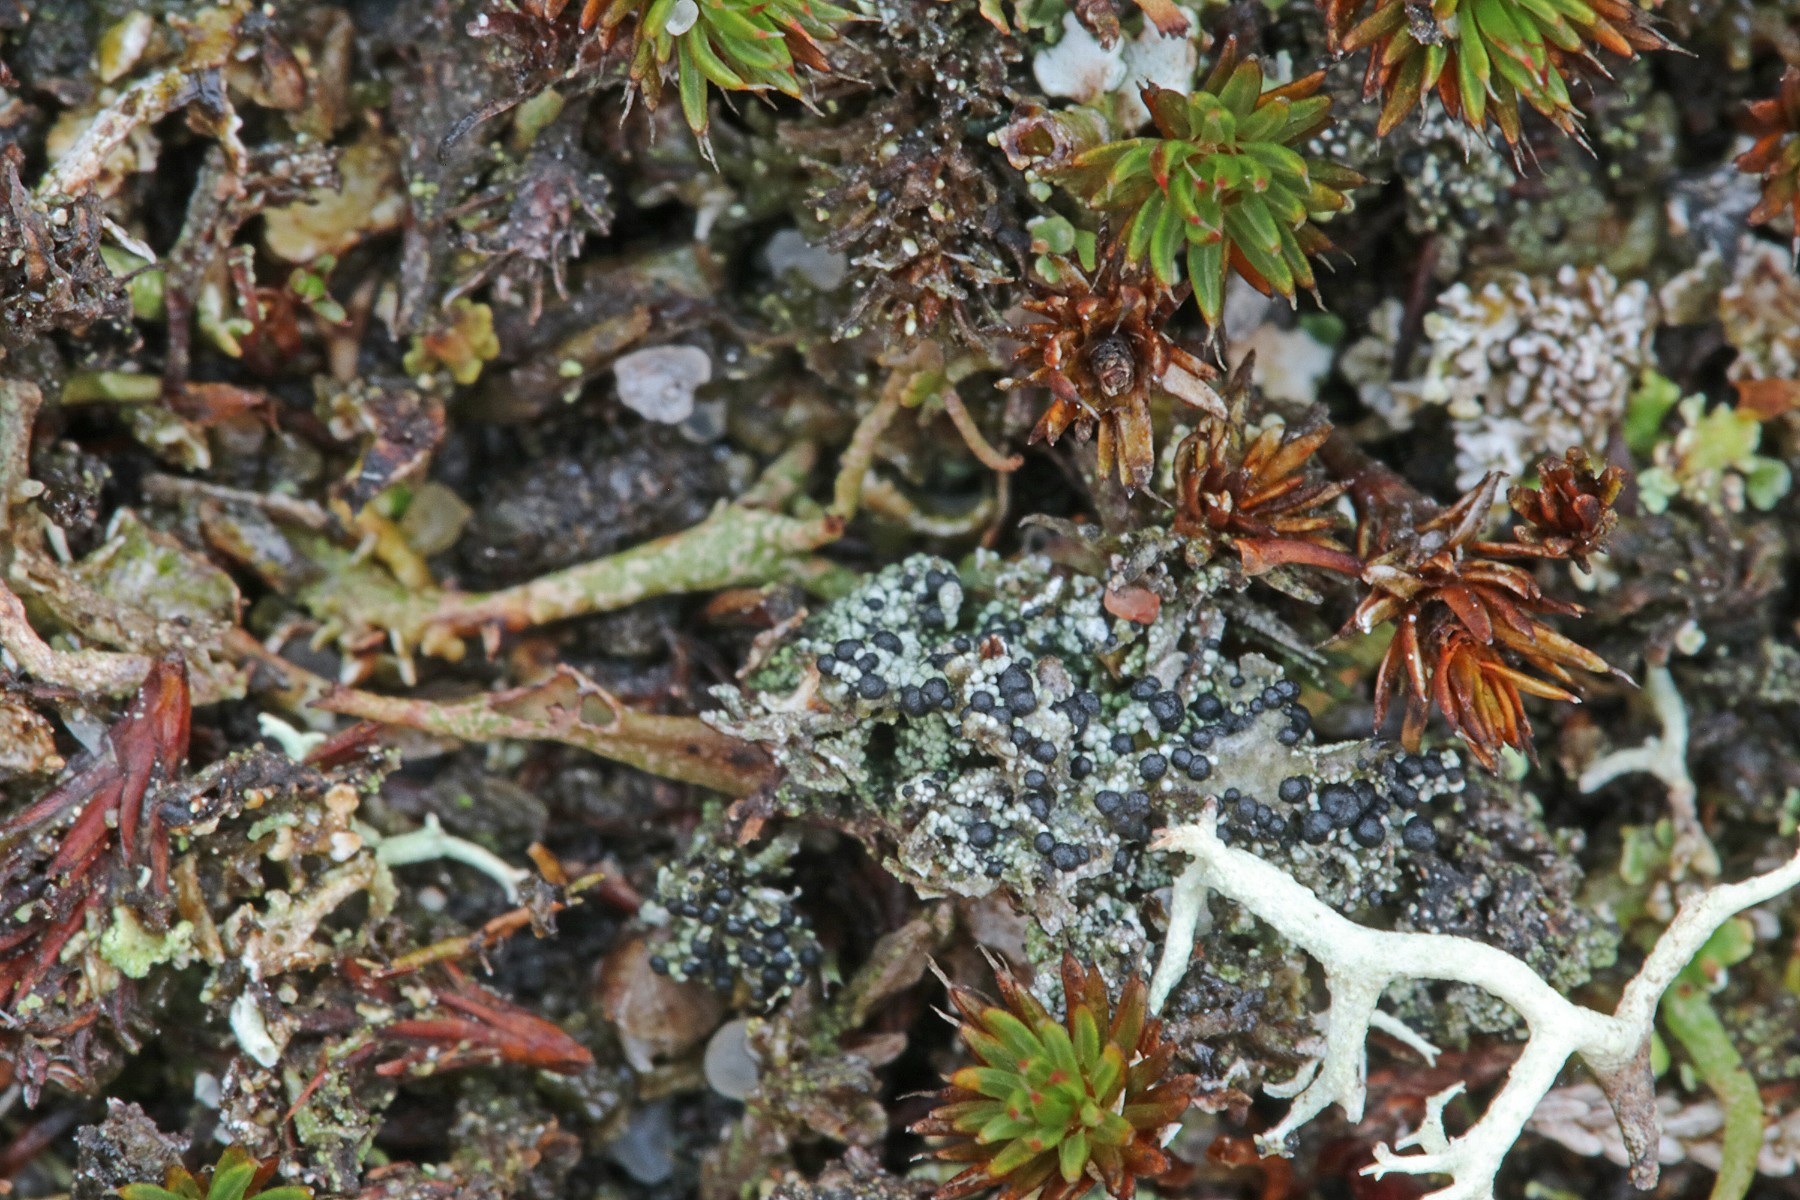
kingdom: Fungi
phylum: Ascomycota
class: Lecanoromycetes
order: Lecanorales
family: Byssolomataceae
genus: Micarea
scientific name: Micarea lignaria
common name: tørve-knaplav
